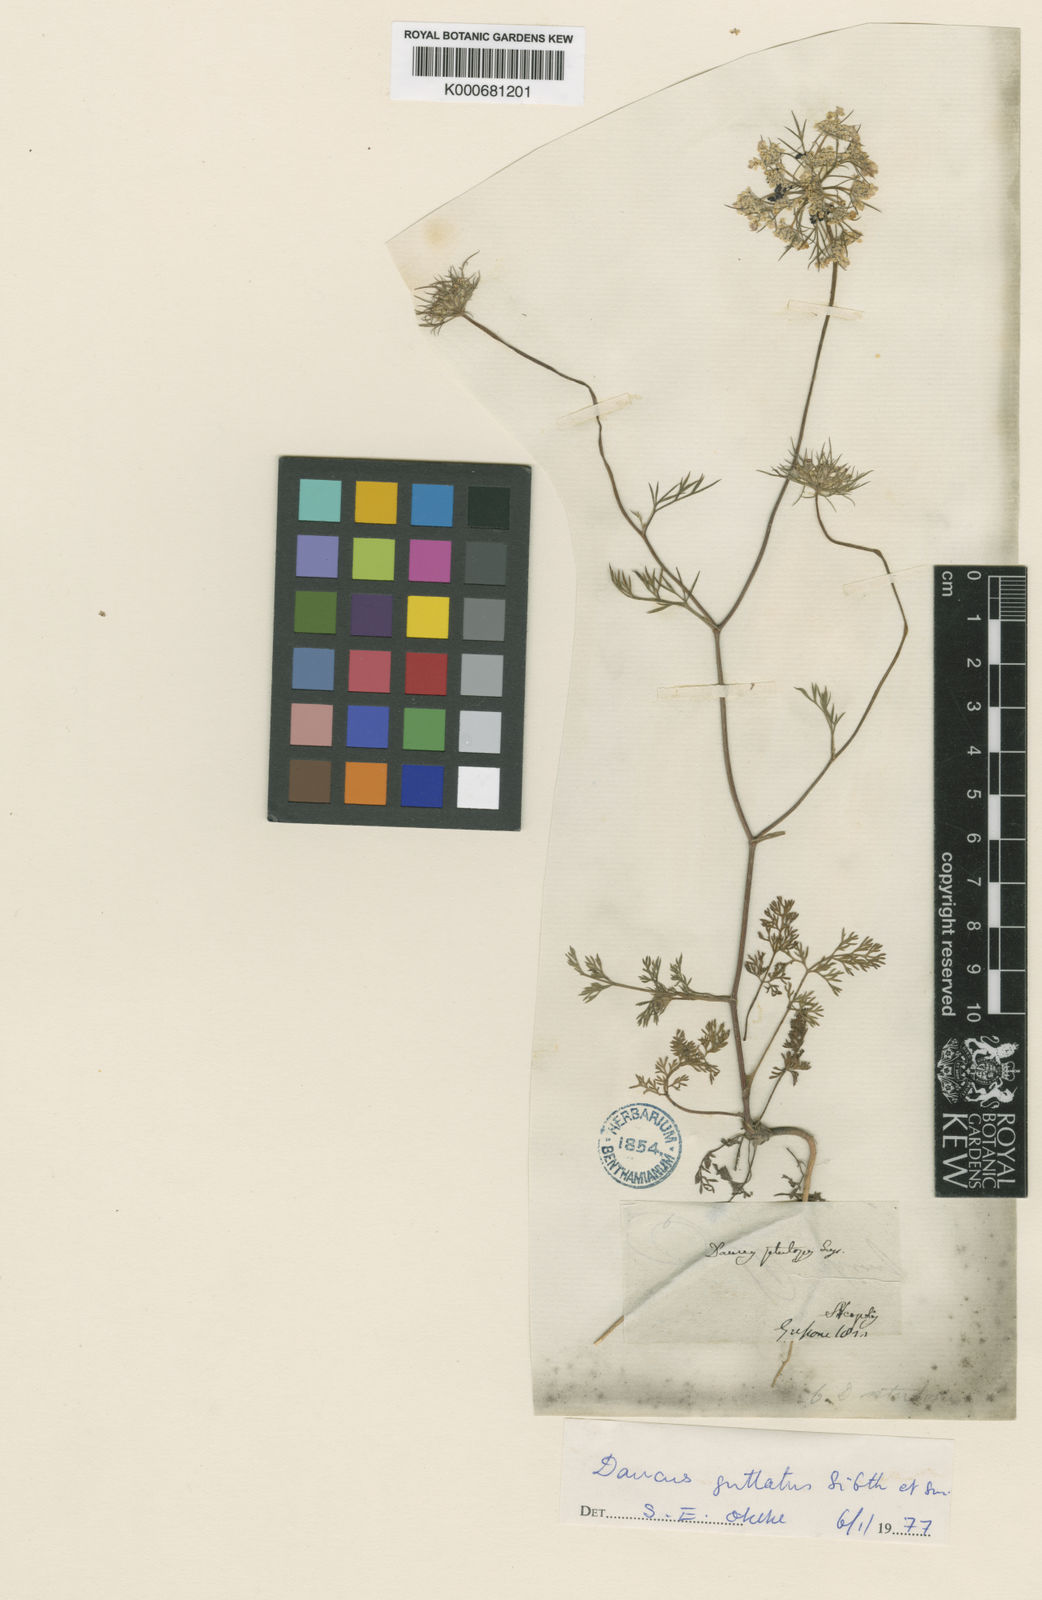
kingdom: Plantae
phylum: Tracheophyta
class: Magnoliopsida
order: Apiales
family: Apiaceae
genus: Daucus
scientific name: Daucus guttatus
